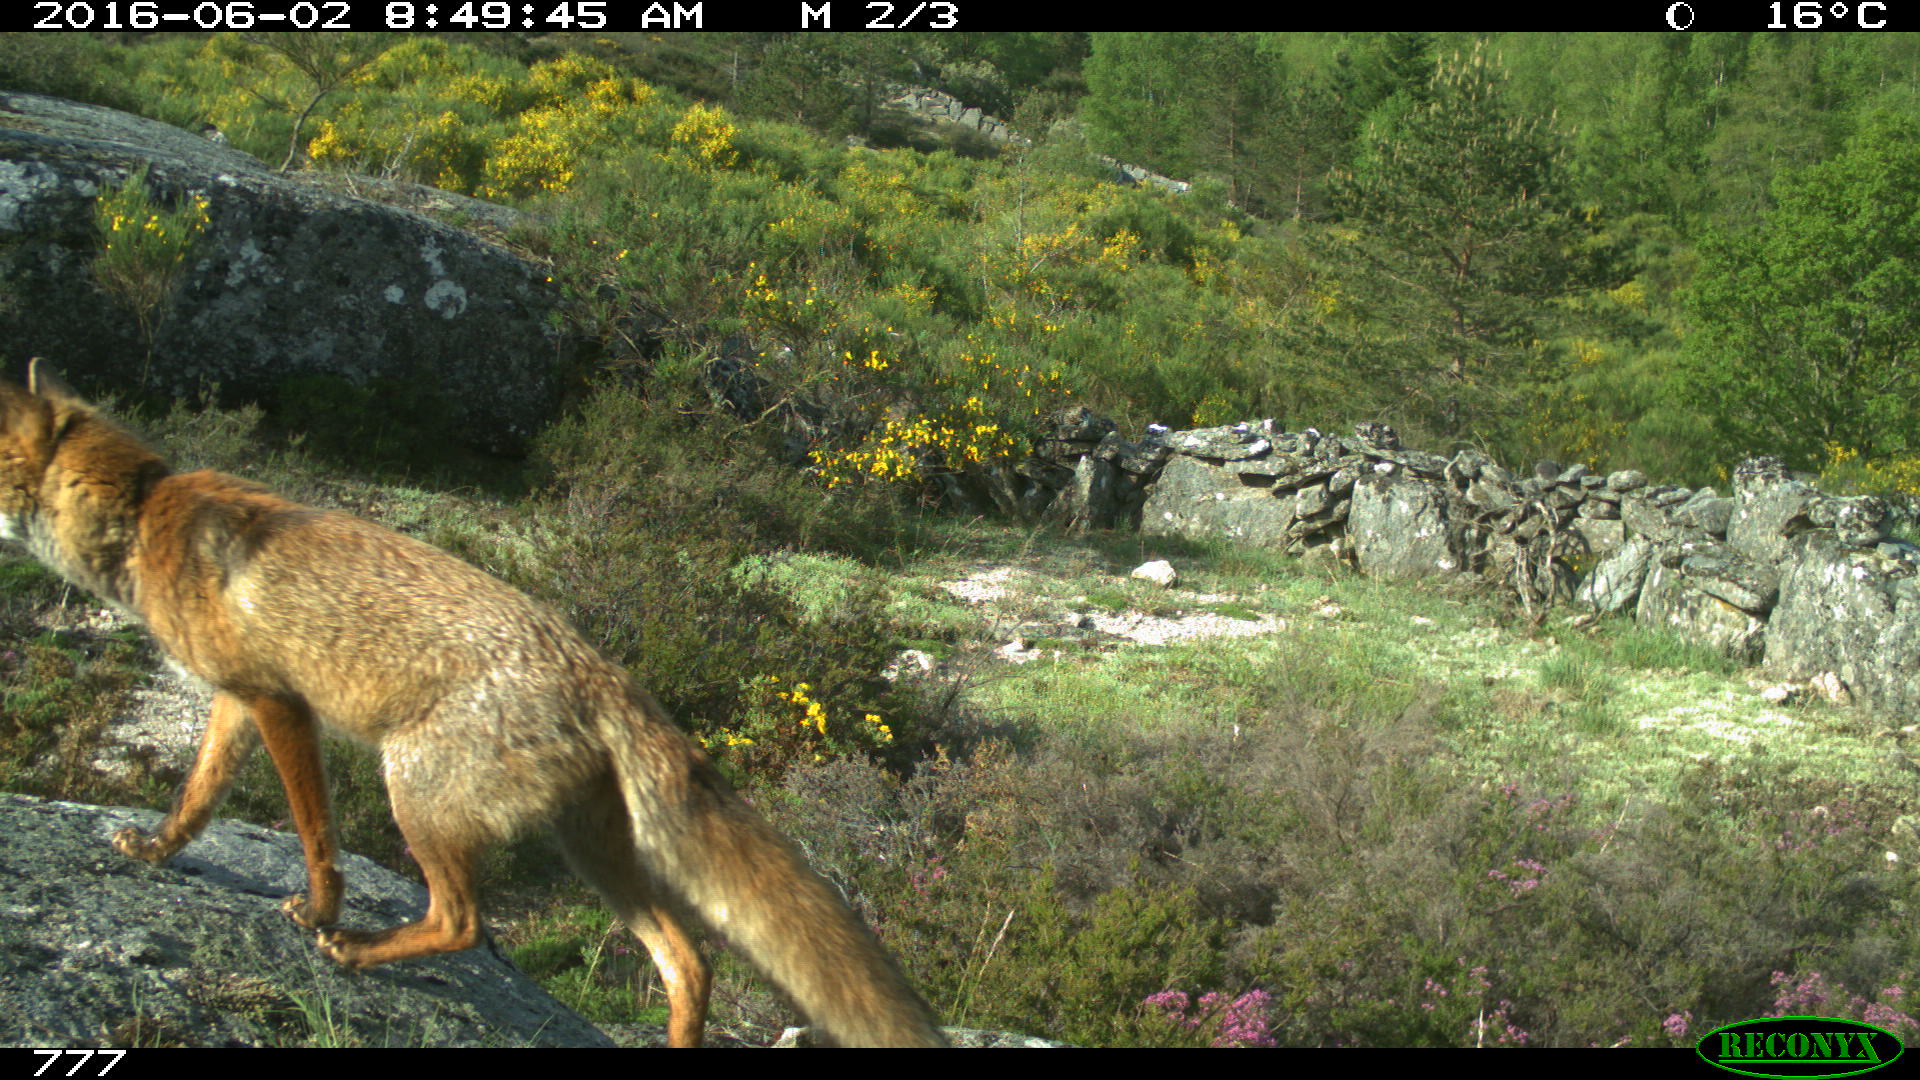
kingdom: Animalia
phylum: Chordata
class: Mammalia
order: Carnivora
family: Canidae
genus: Vulpes
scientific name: Vulpes vulpes
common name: Red fox
